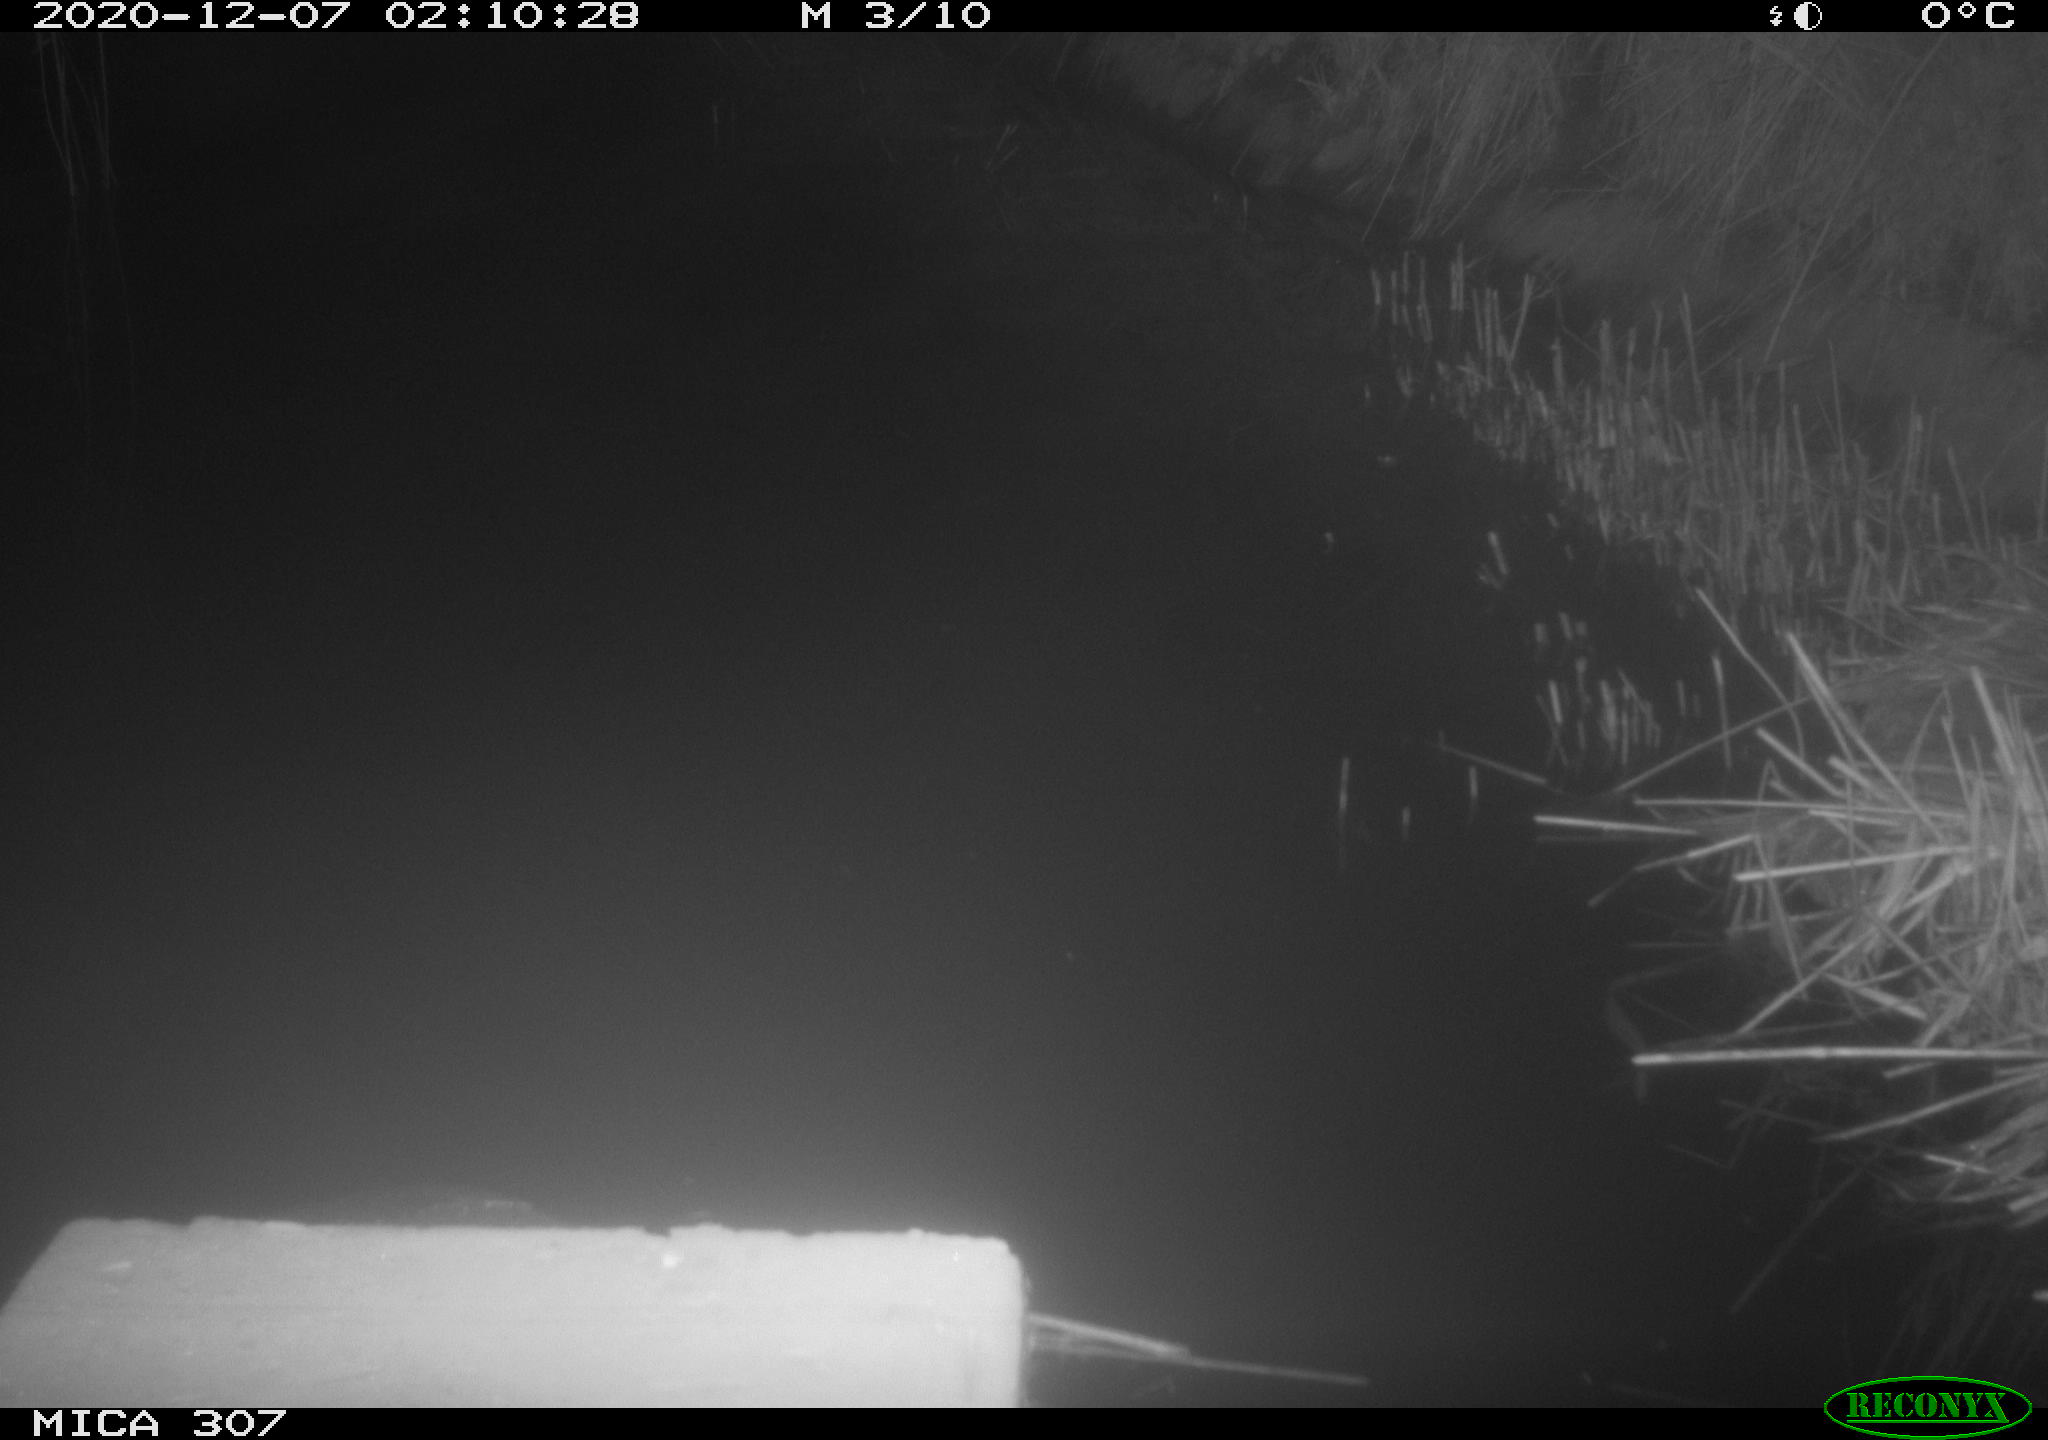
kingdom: Animalia
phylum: Chordata
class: Mammalia
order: Rodentia
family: Muridae
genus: Rattus
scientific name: Rattus norvegicus
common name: Brown rat
